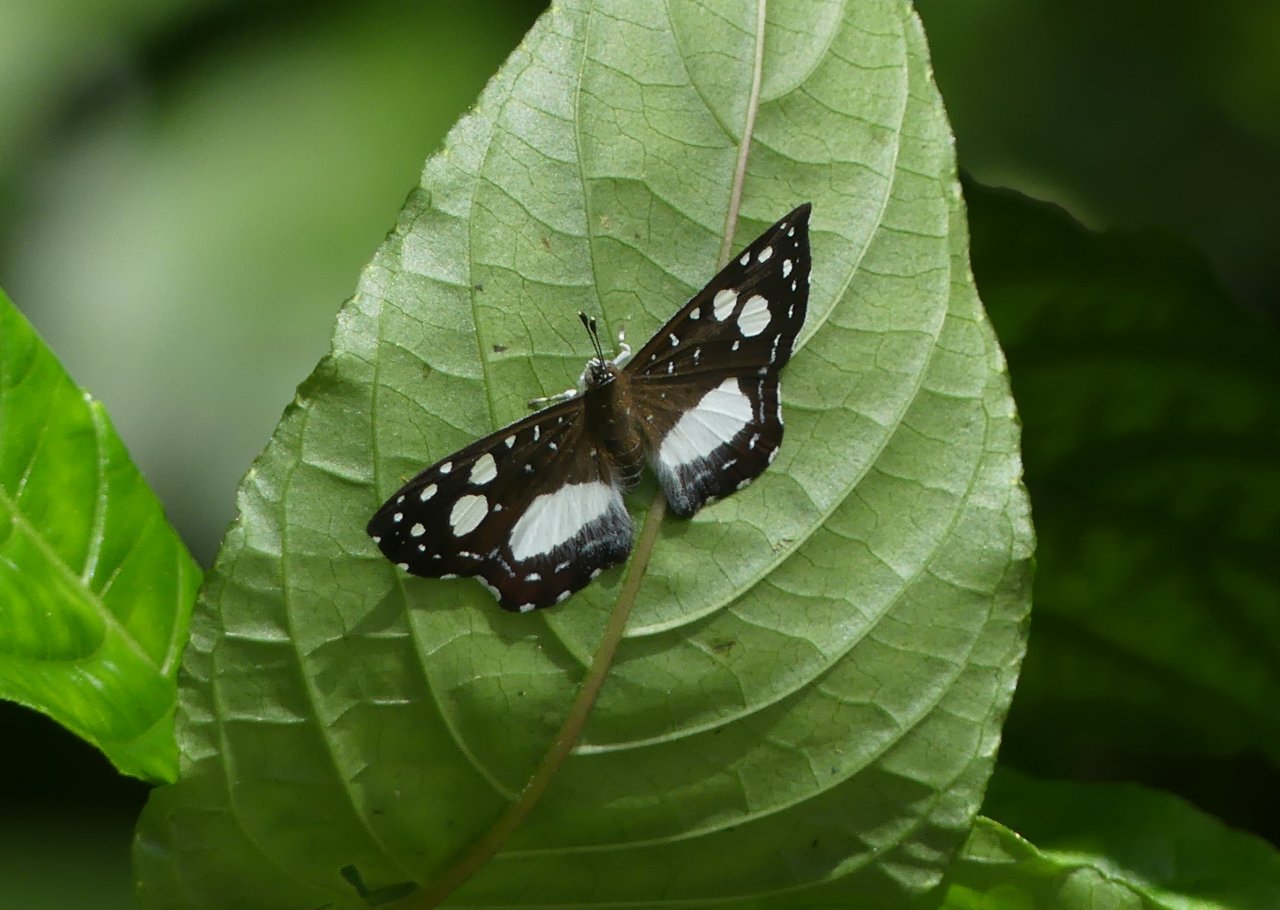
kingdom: Animalia
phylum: Arthropoda
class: Insecta
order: Lepidoptera
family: Riodinidae
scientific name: Riodinidae
